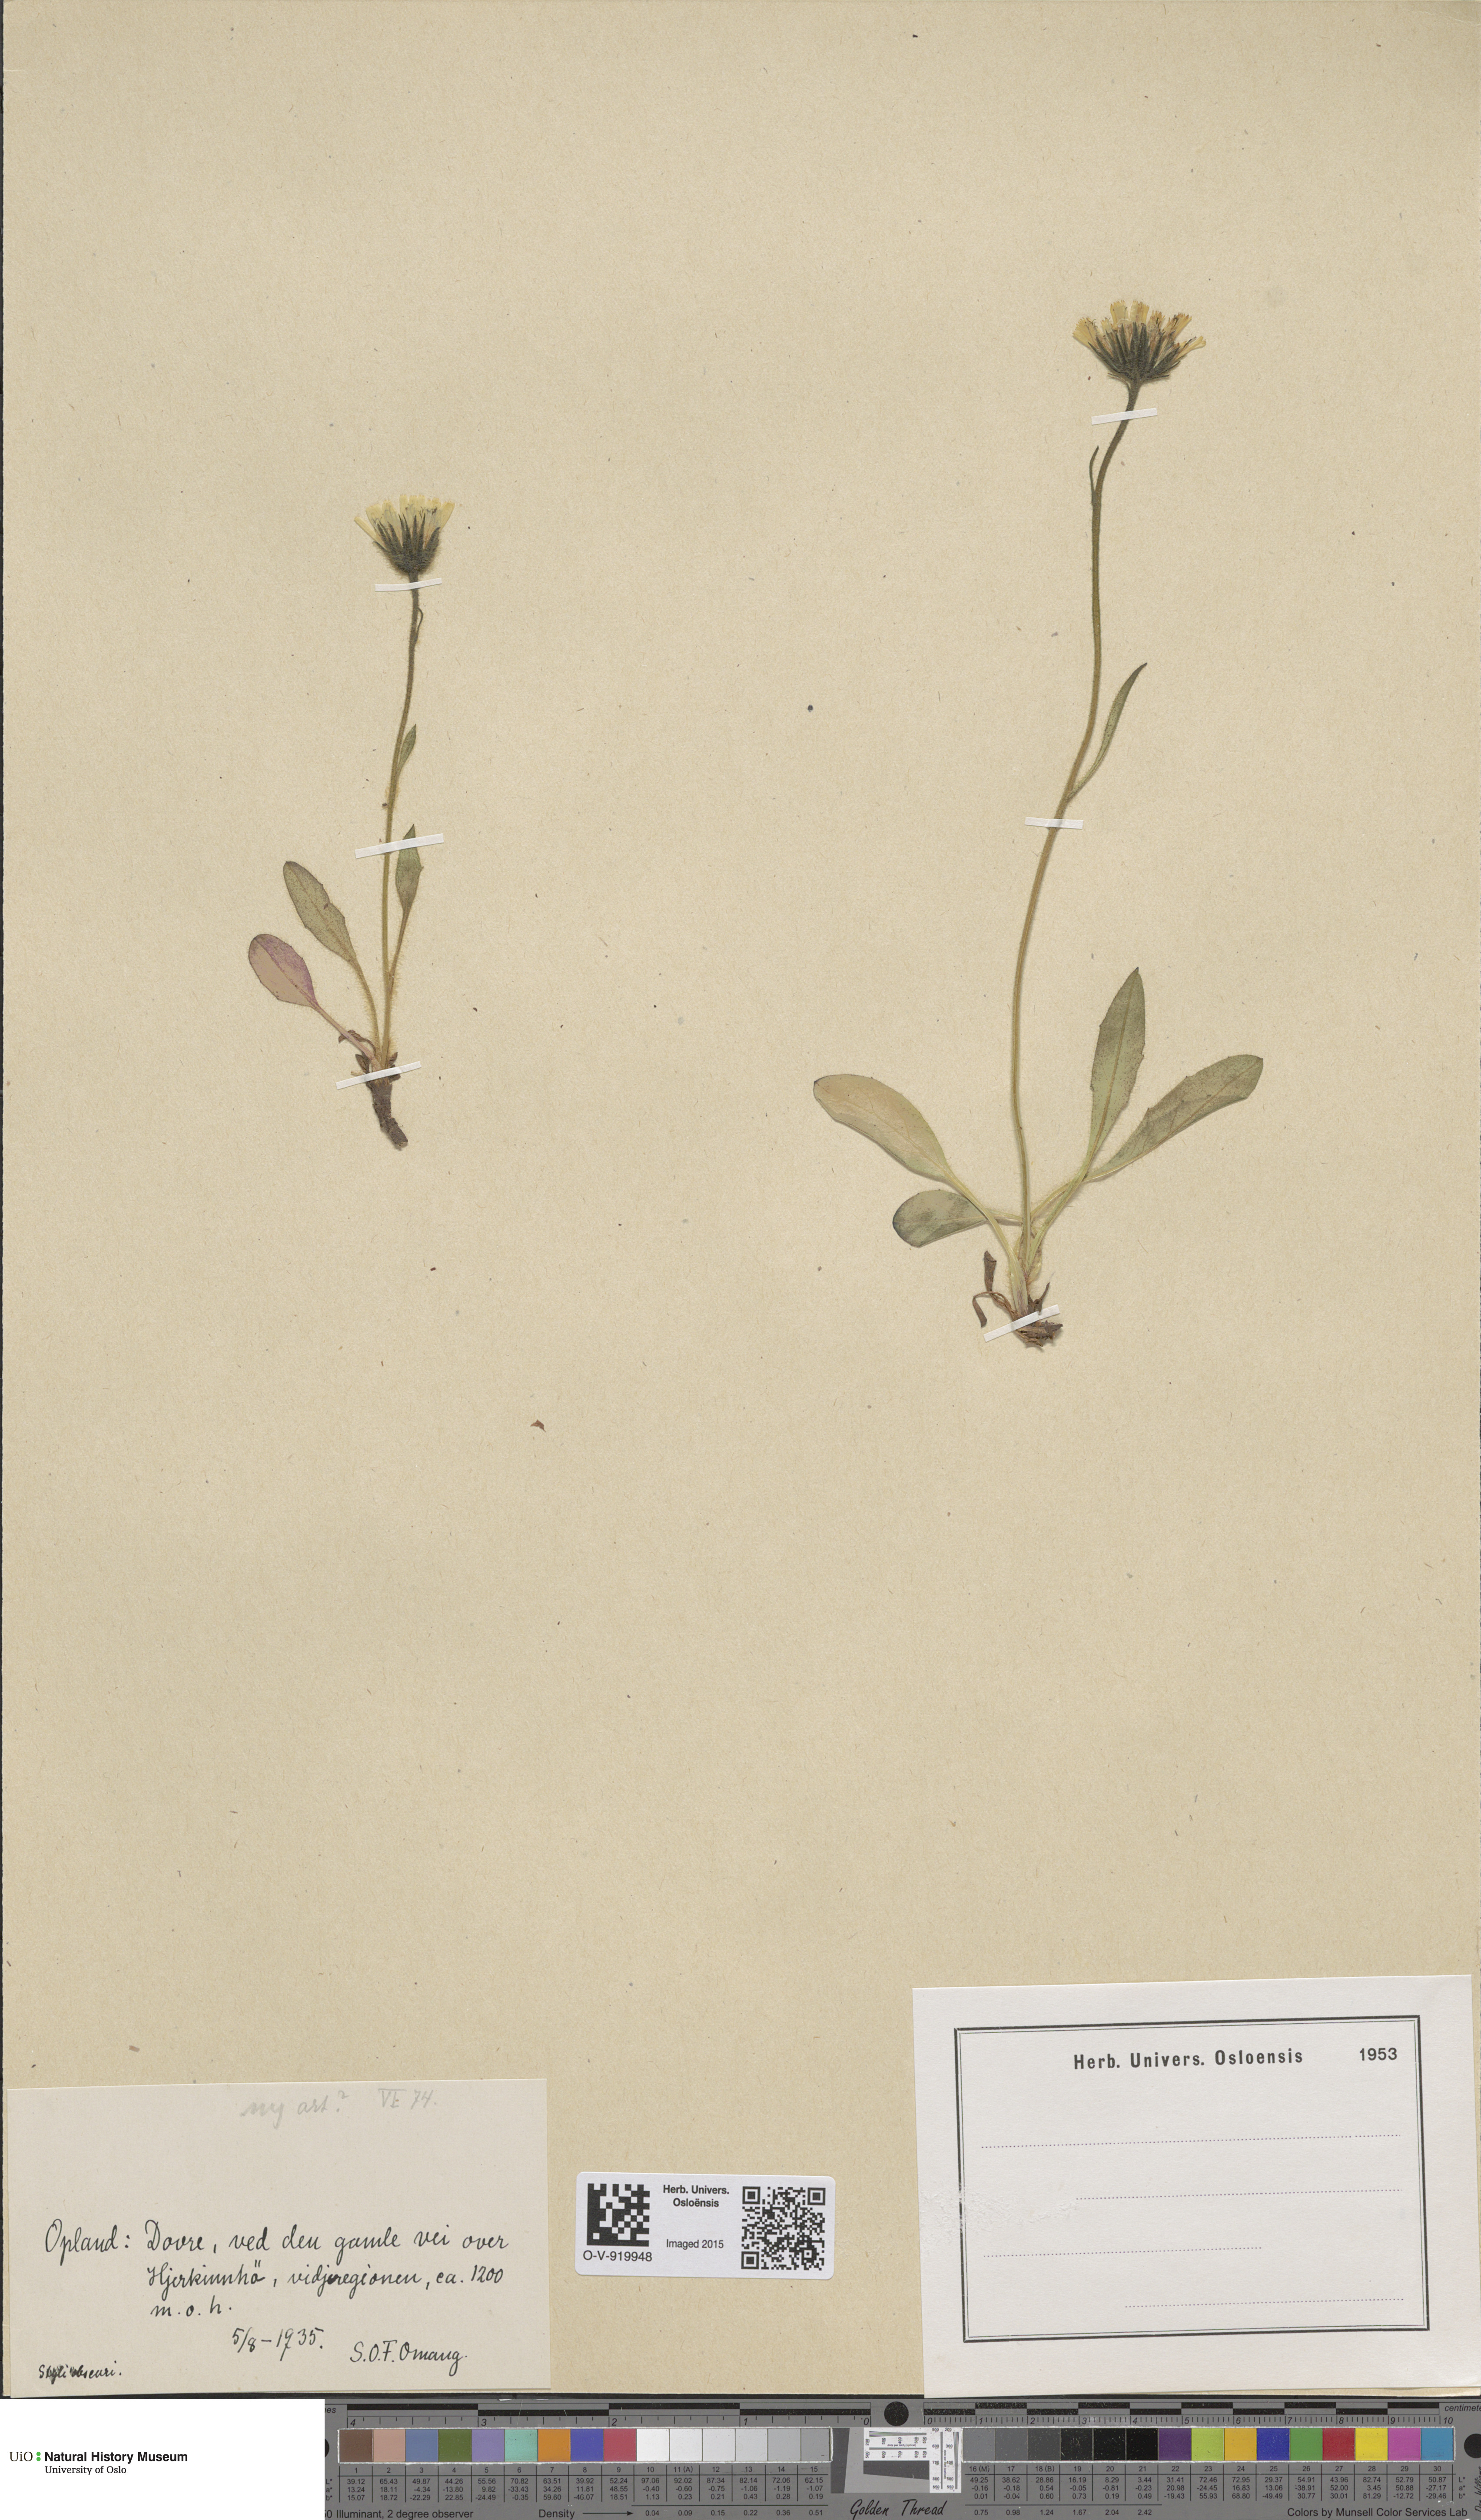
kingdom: Plantae
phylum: Tracheophyta
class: Magnoliopsida
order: Asterales
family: Asteraceae
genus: Hieracium
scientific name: Hieracium alpinum
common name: Alpine hawkweed
